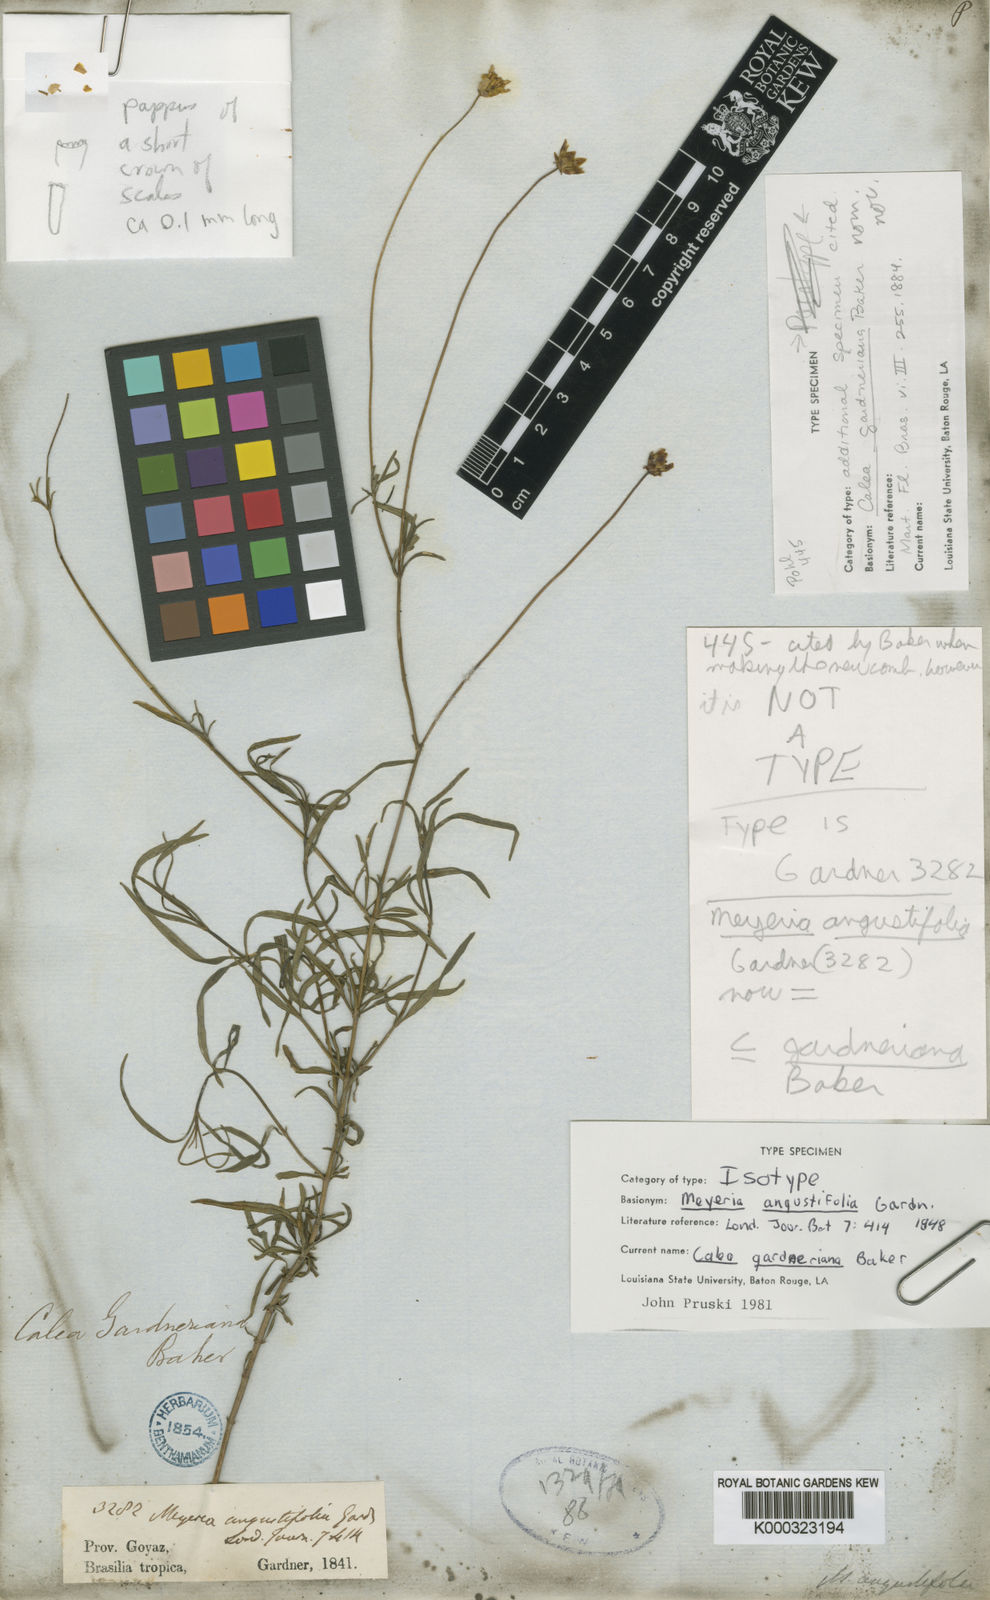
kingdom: Plantae
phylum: Tracheophyta
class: Magnoliopsida
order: Asterales
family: Asteraceae
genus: Calea
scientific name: Calea gardneriana
